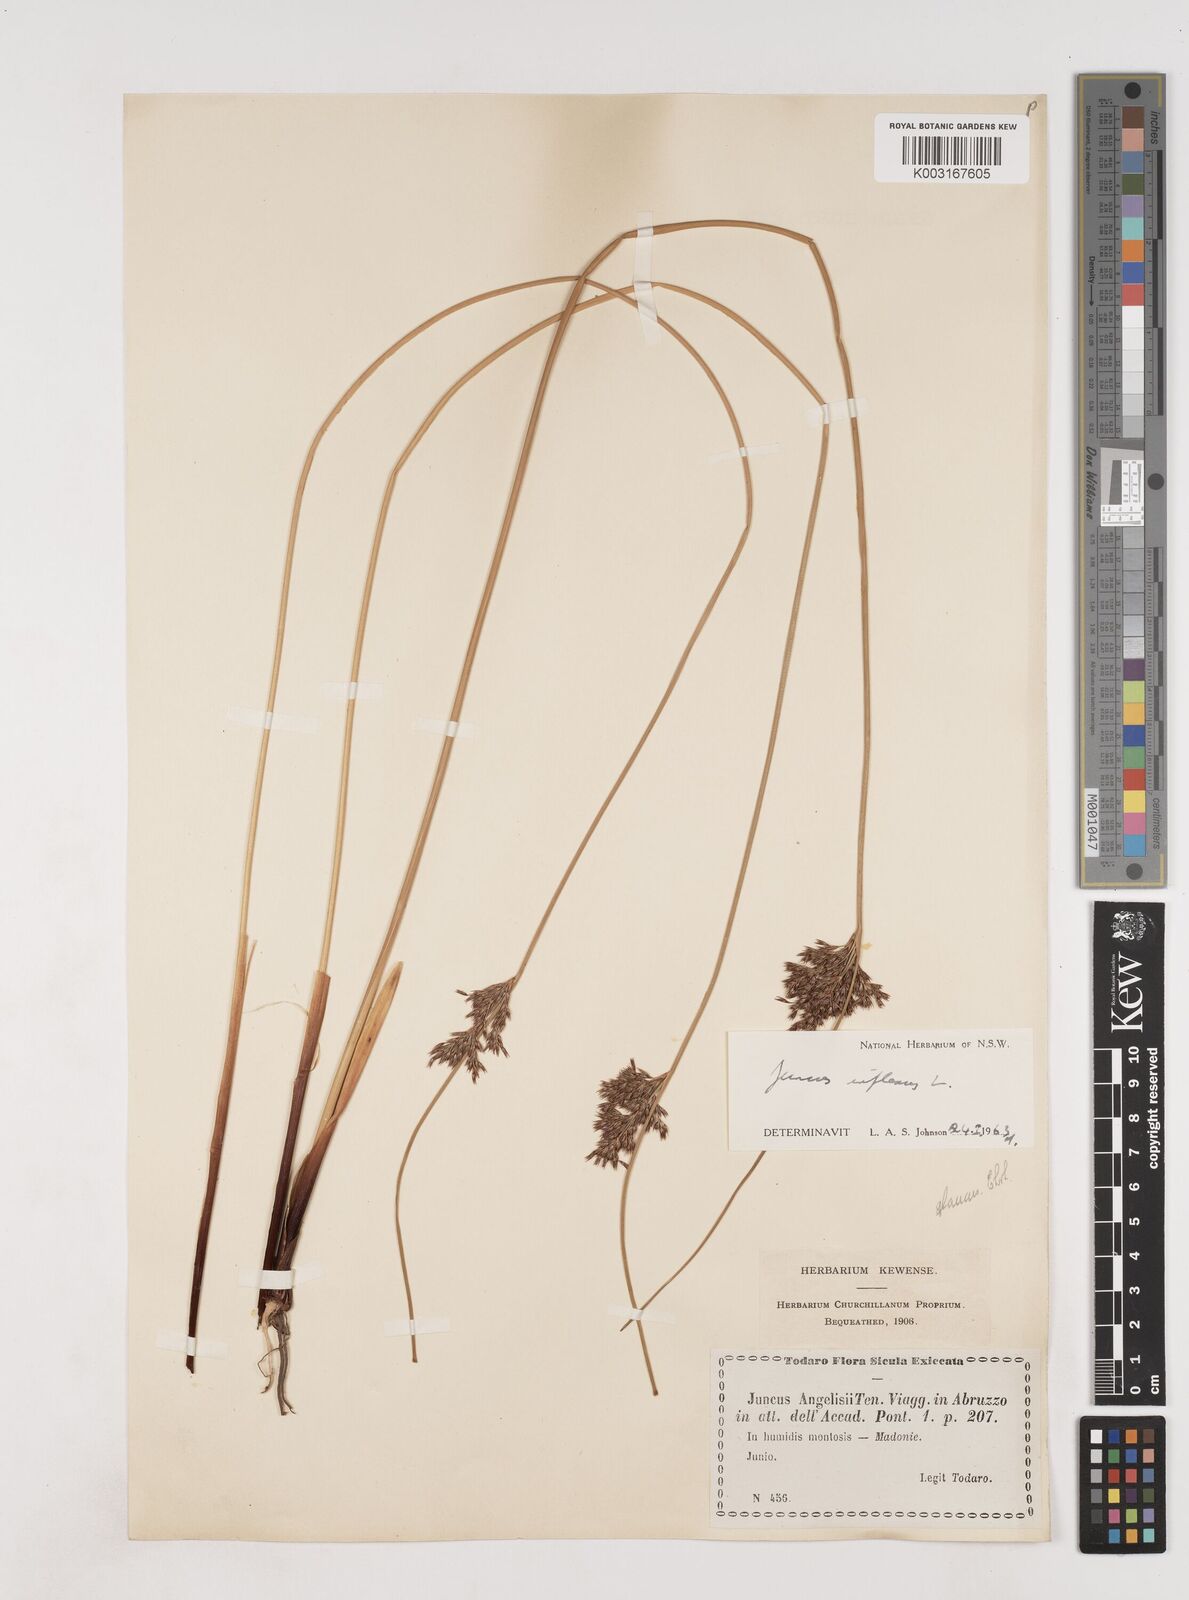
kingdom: Plantae
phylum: Tracheophyta
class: Liliopsida
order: Poales
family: Juncaceae
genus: Juncus
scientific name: Juncus inflexus
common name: Hard rush
